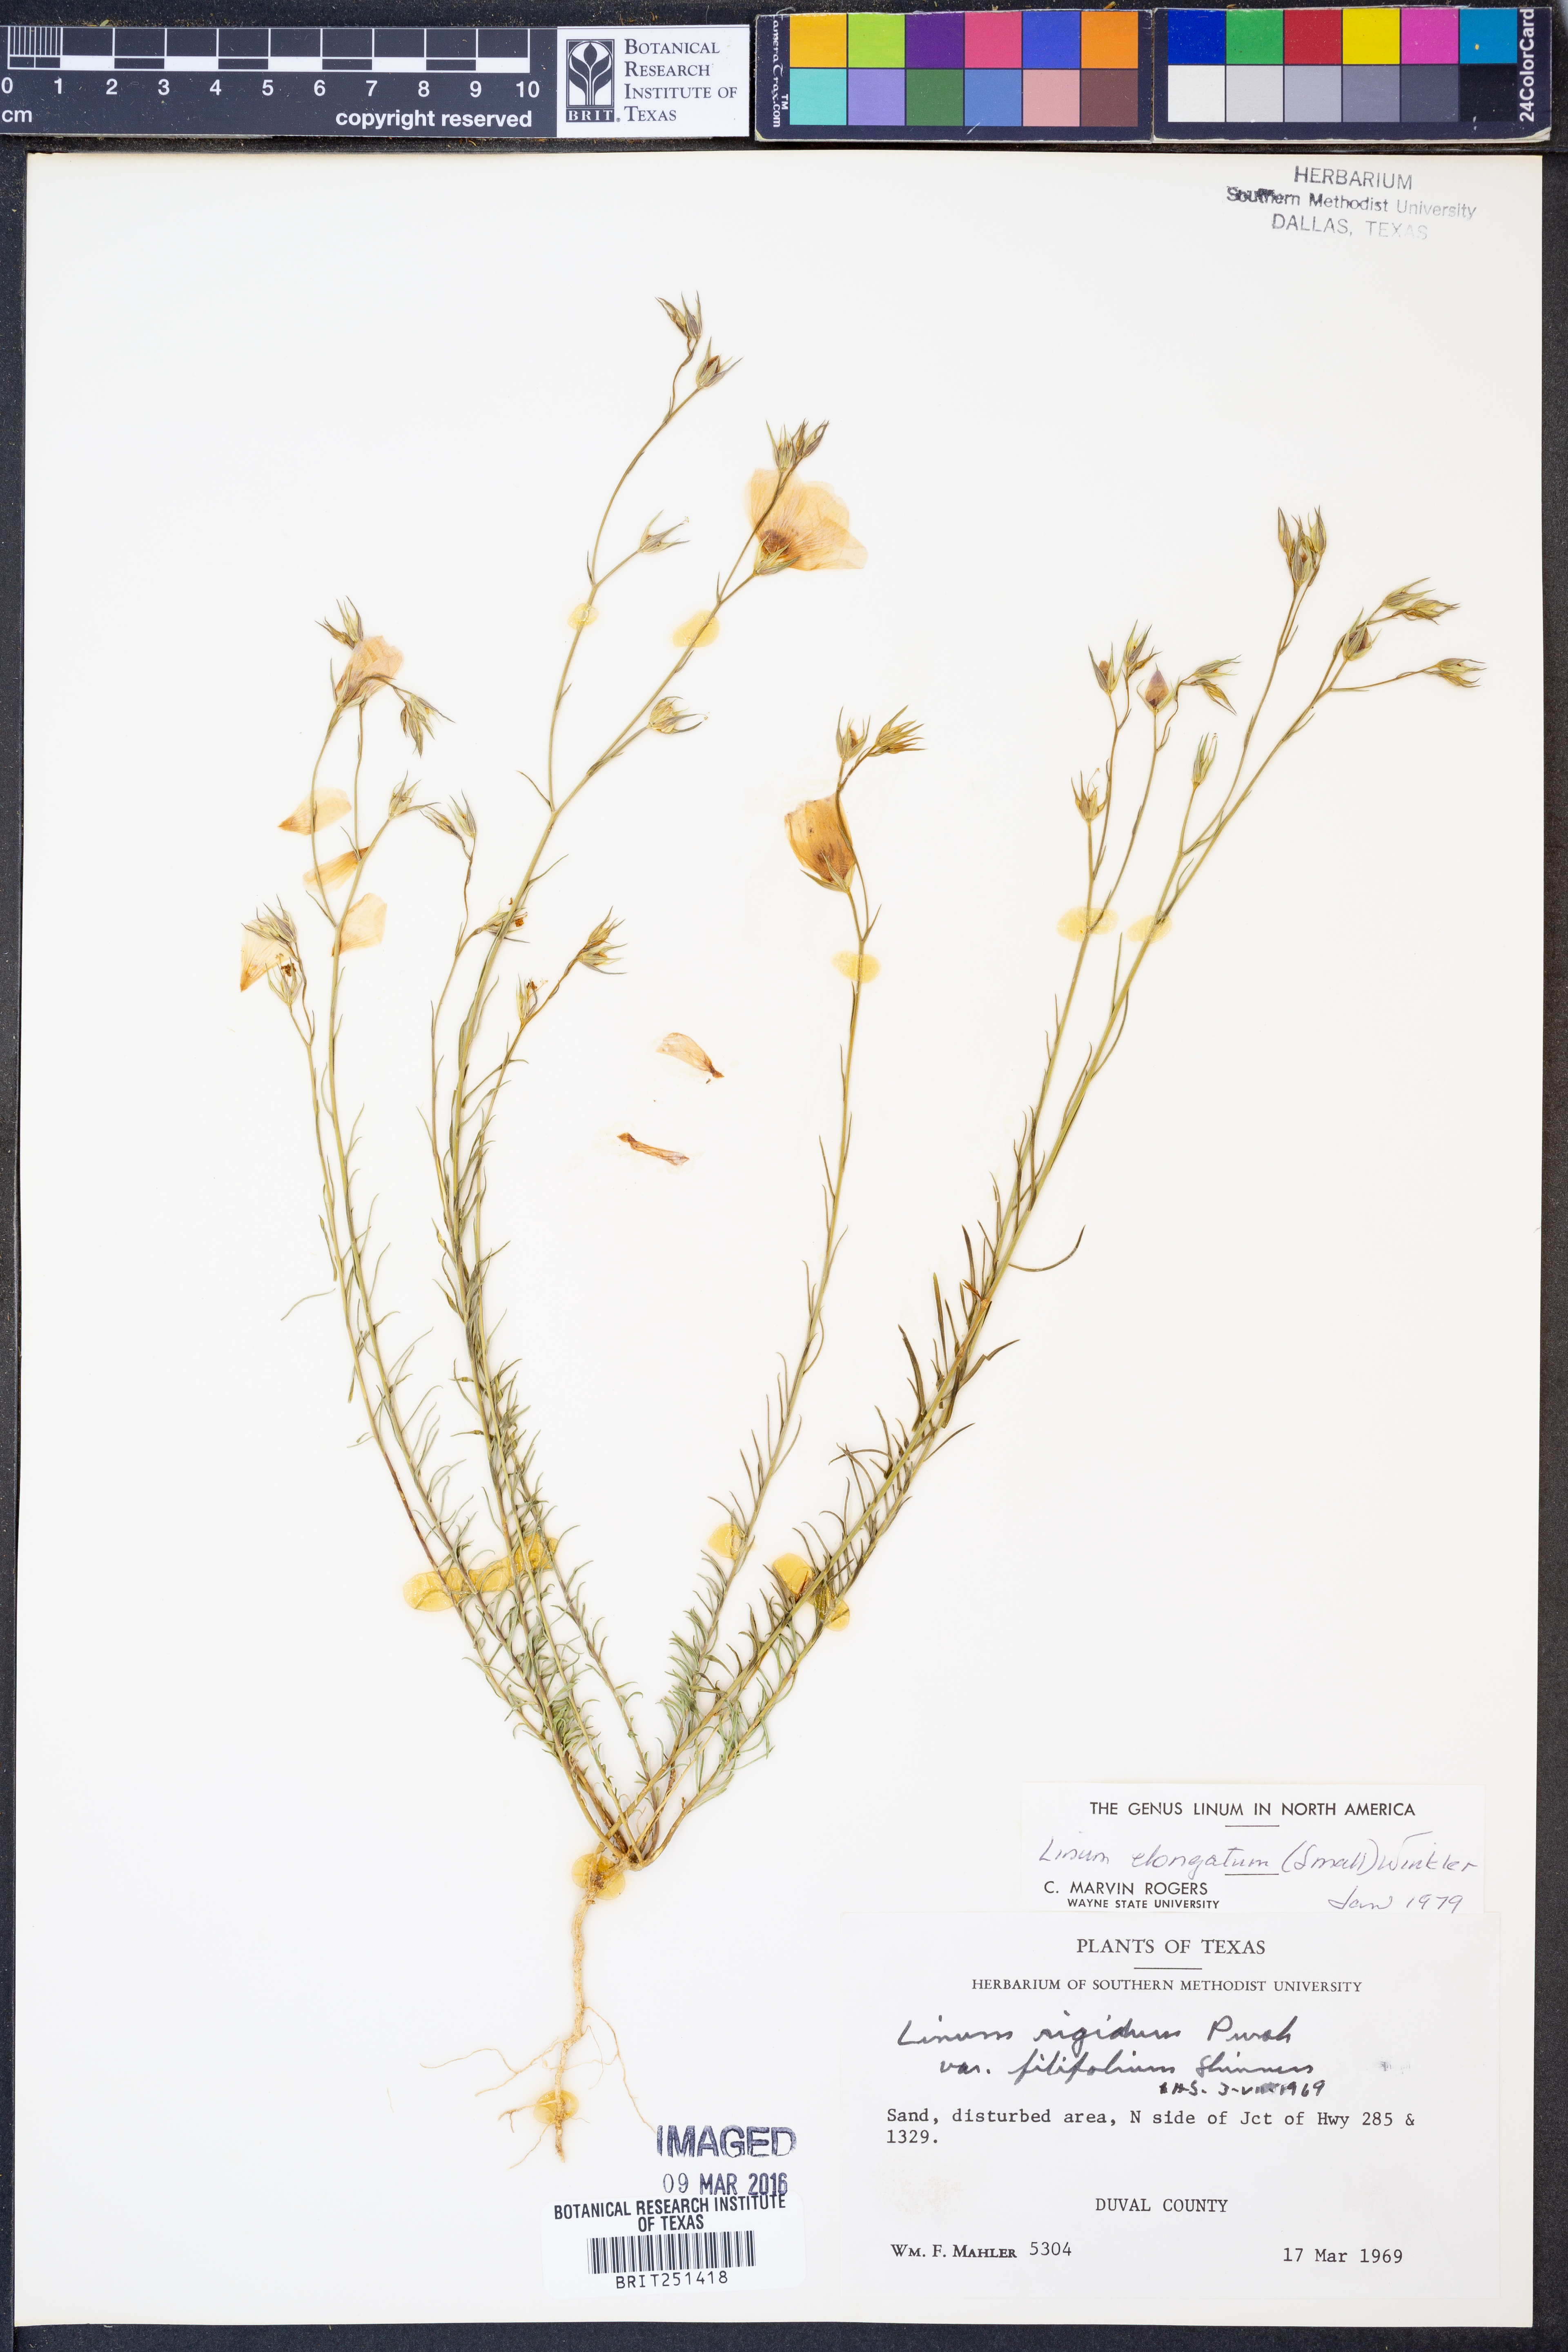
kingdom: Plantae
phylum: Tracheophyta
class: Magnoliopsida
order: Malpighiales
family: Linaceae
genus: Linum
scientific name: Linum elongatum
